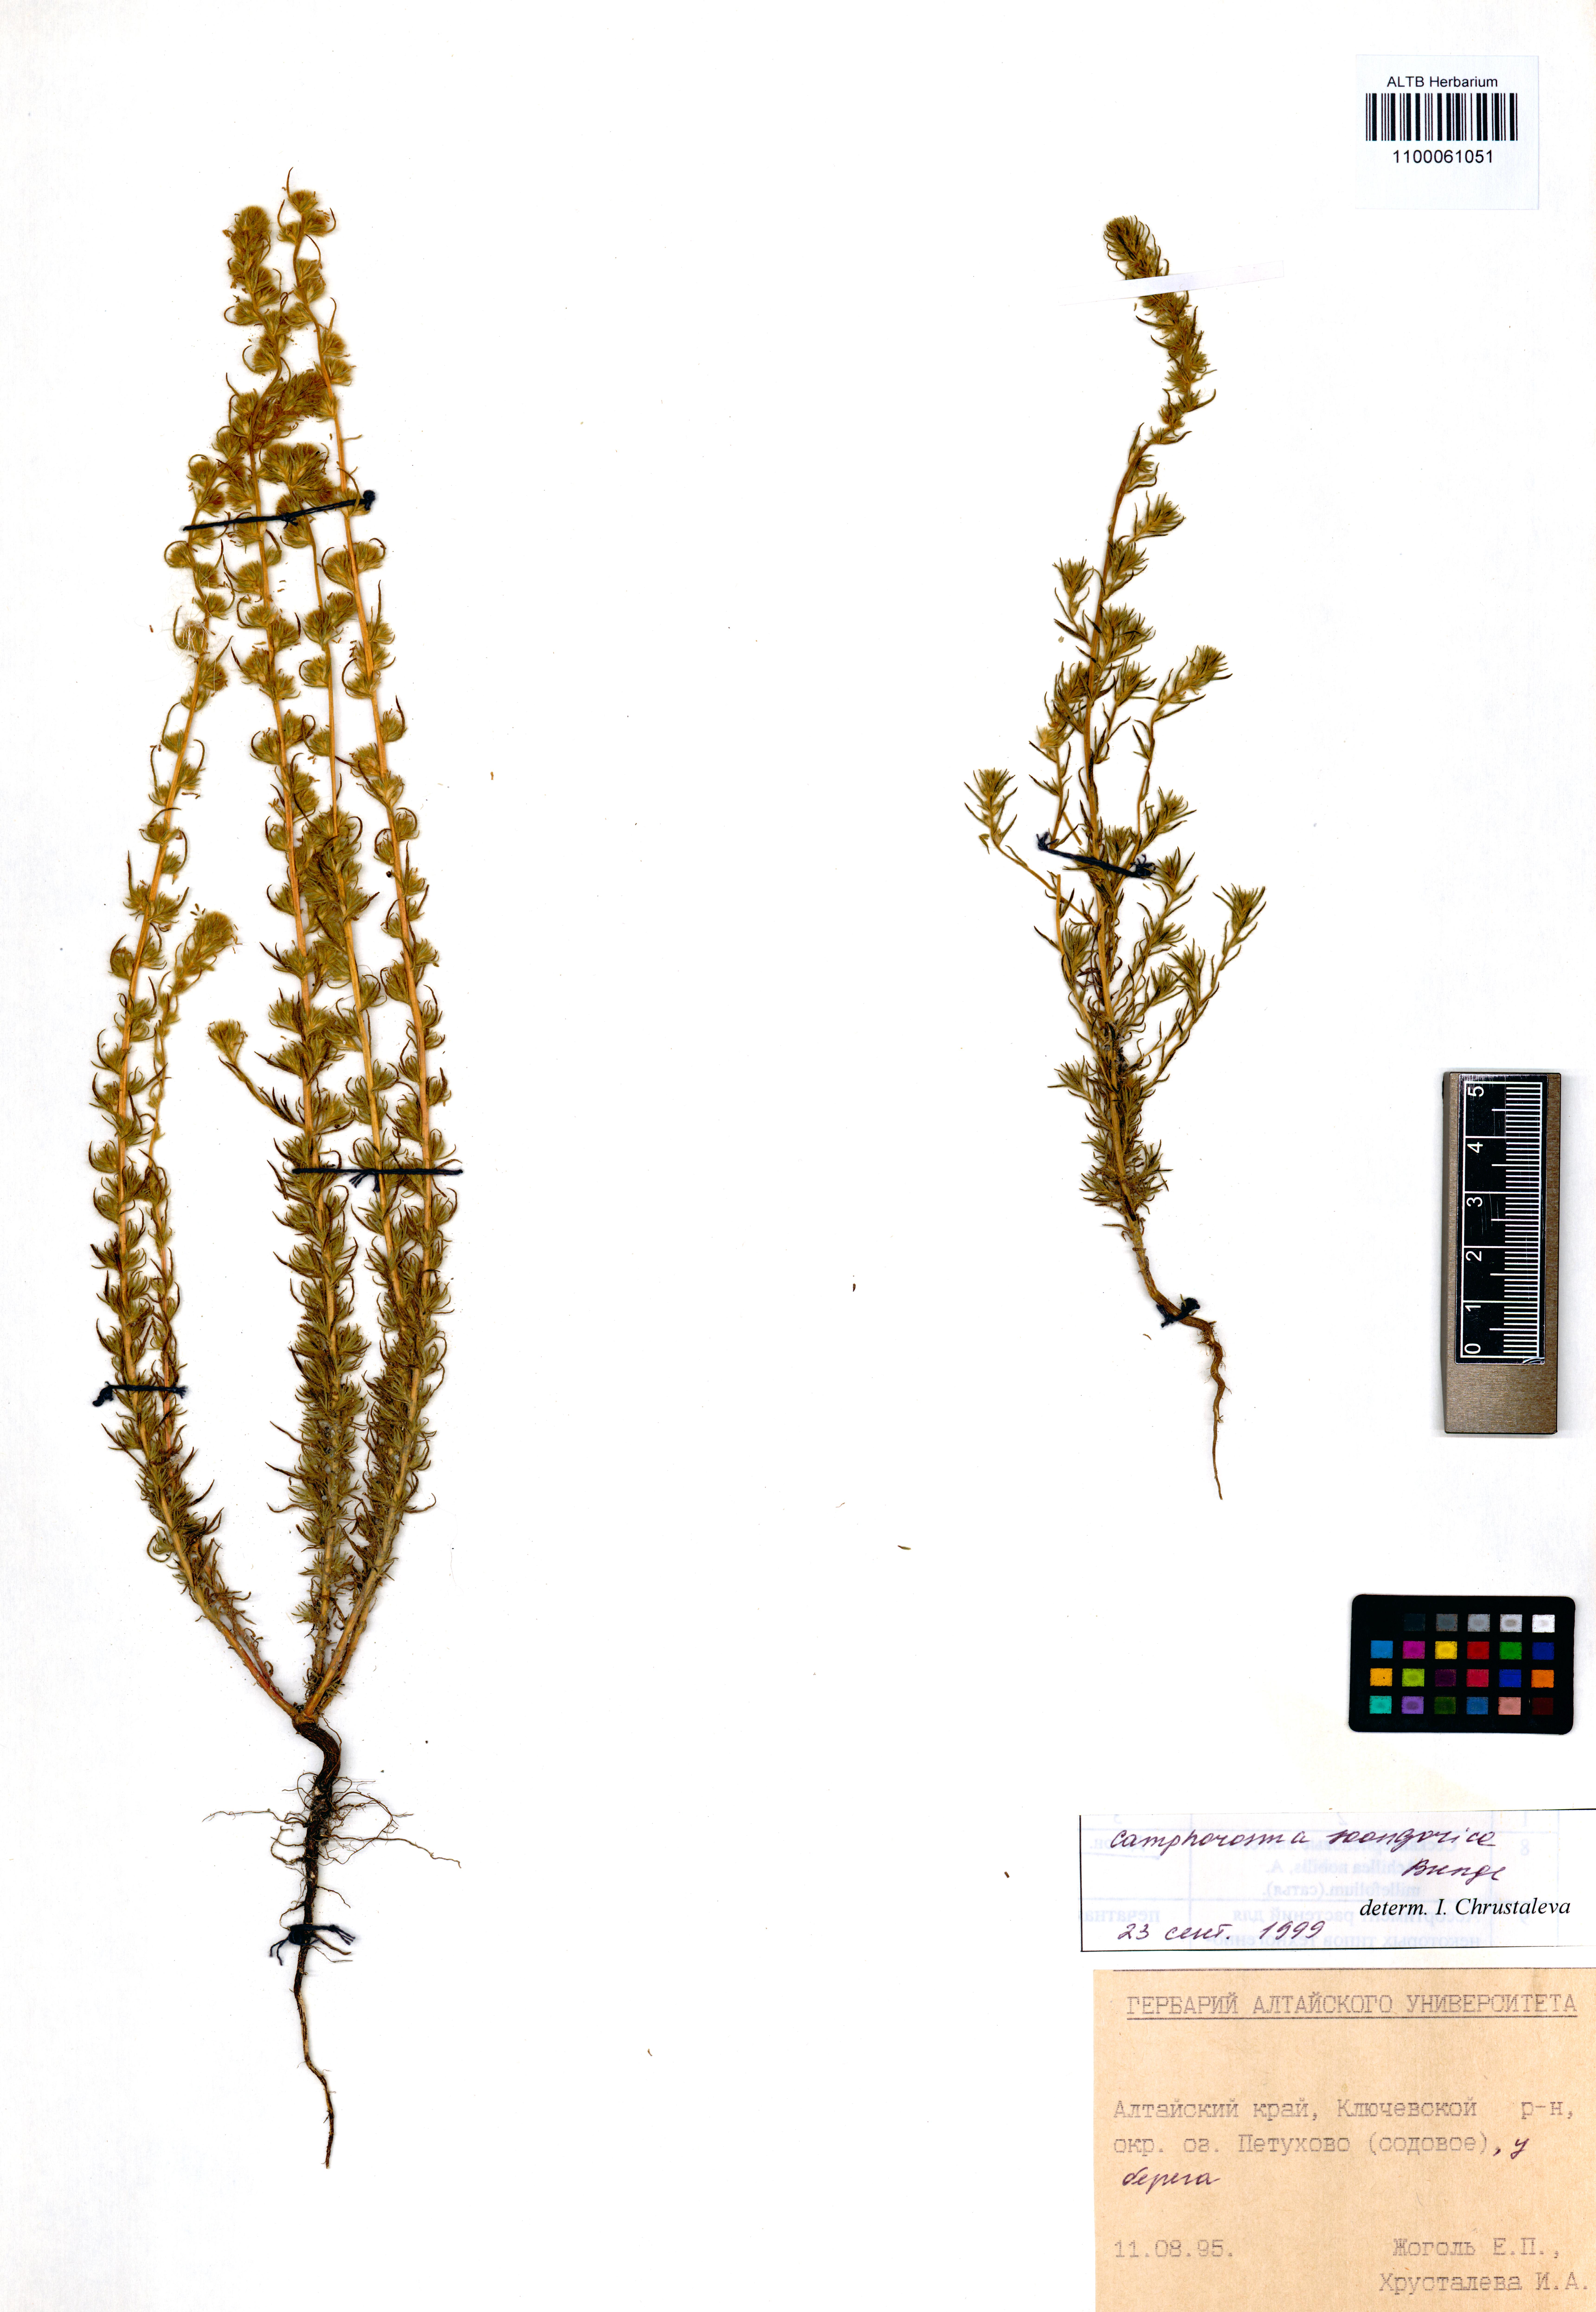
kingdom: Plantae
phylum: Tracheophyta
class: Magnoliopsida
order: Caryophyllales
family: Amaranthaceae
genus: Camphorosma
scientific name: Camphorosma songorica
